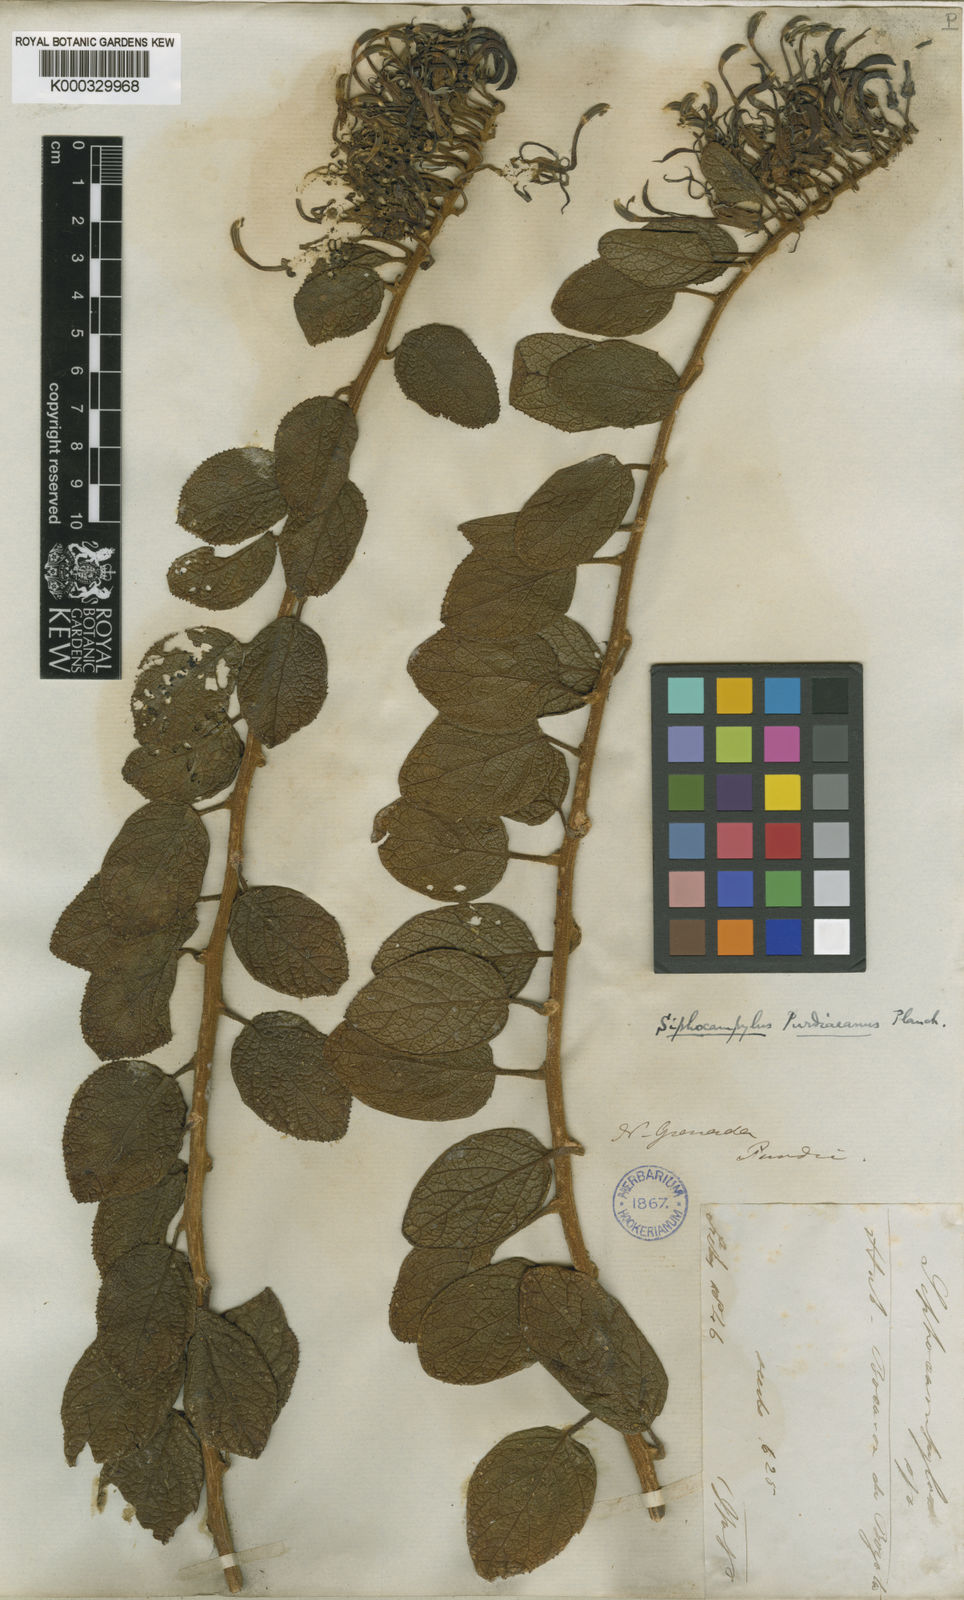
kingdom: Plantae
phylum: Tracheophyta
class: Magnoliopsida
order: Asterales
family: Campanulaceae
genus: Siphocampylus
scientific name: Siphocampylus purdieanus
